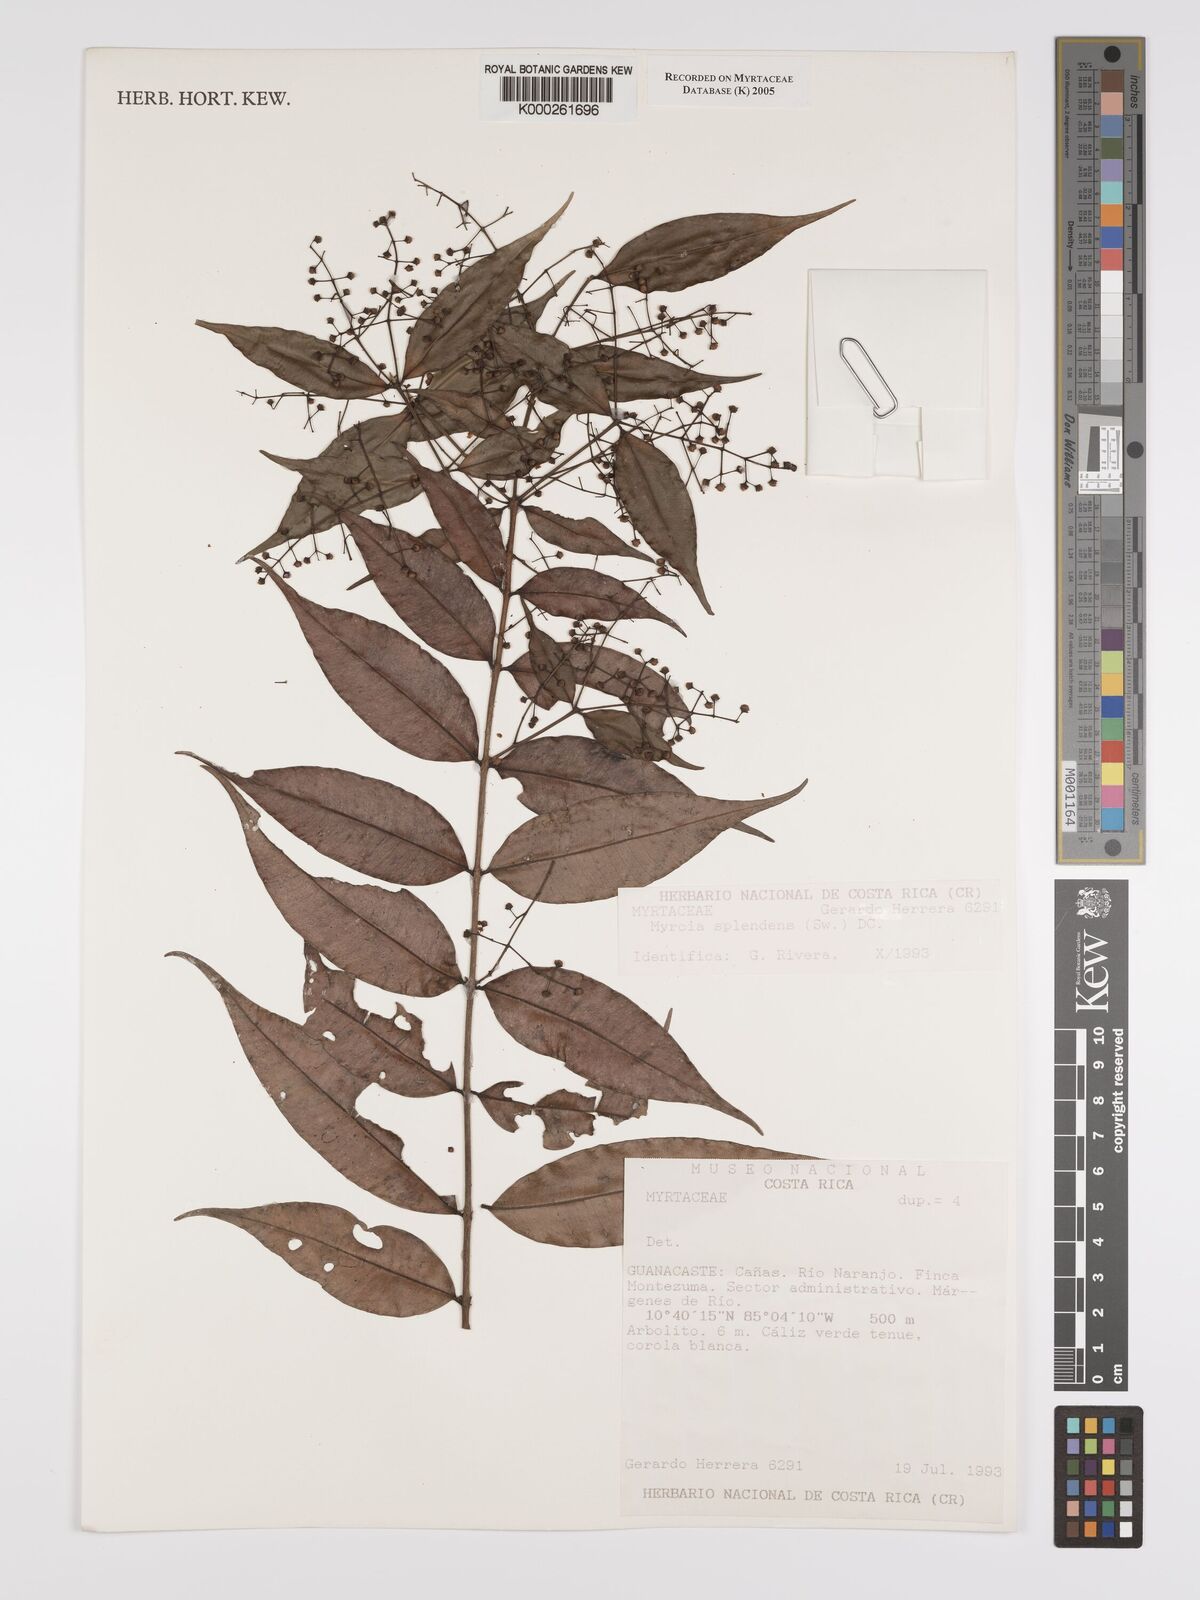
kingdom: Plantae
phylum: Tracheophyta
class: Magnoliopsida
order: Myrtales
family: Myrtaceae
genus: Myrcia
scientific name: Myrcia splendens
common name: Surinam cherry
